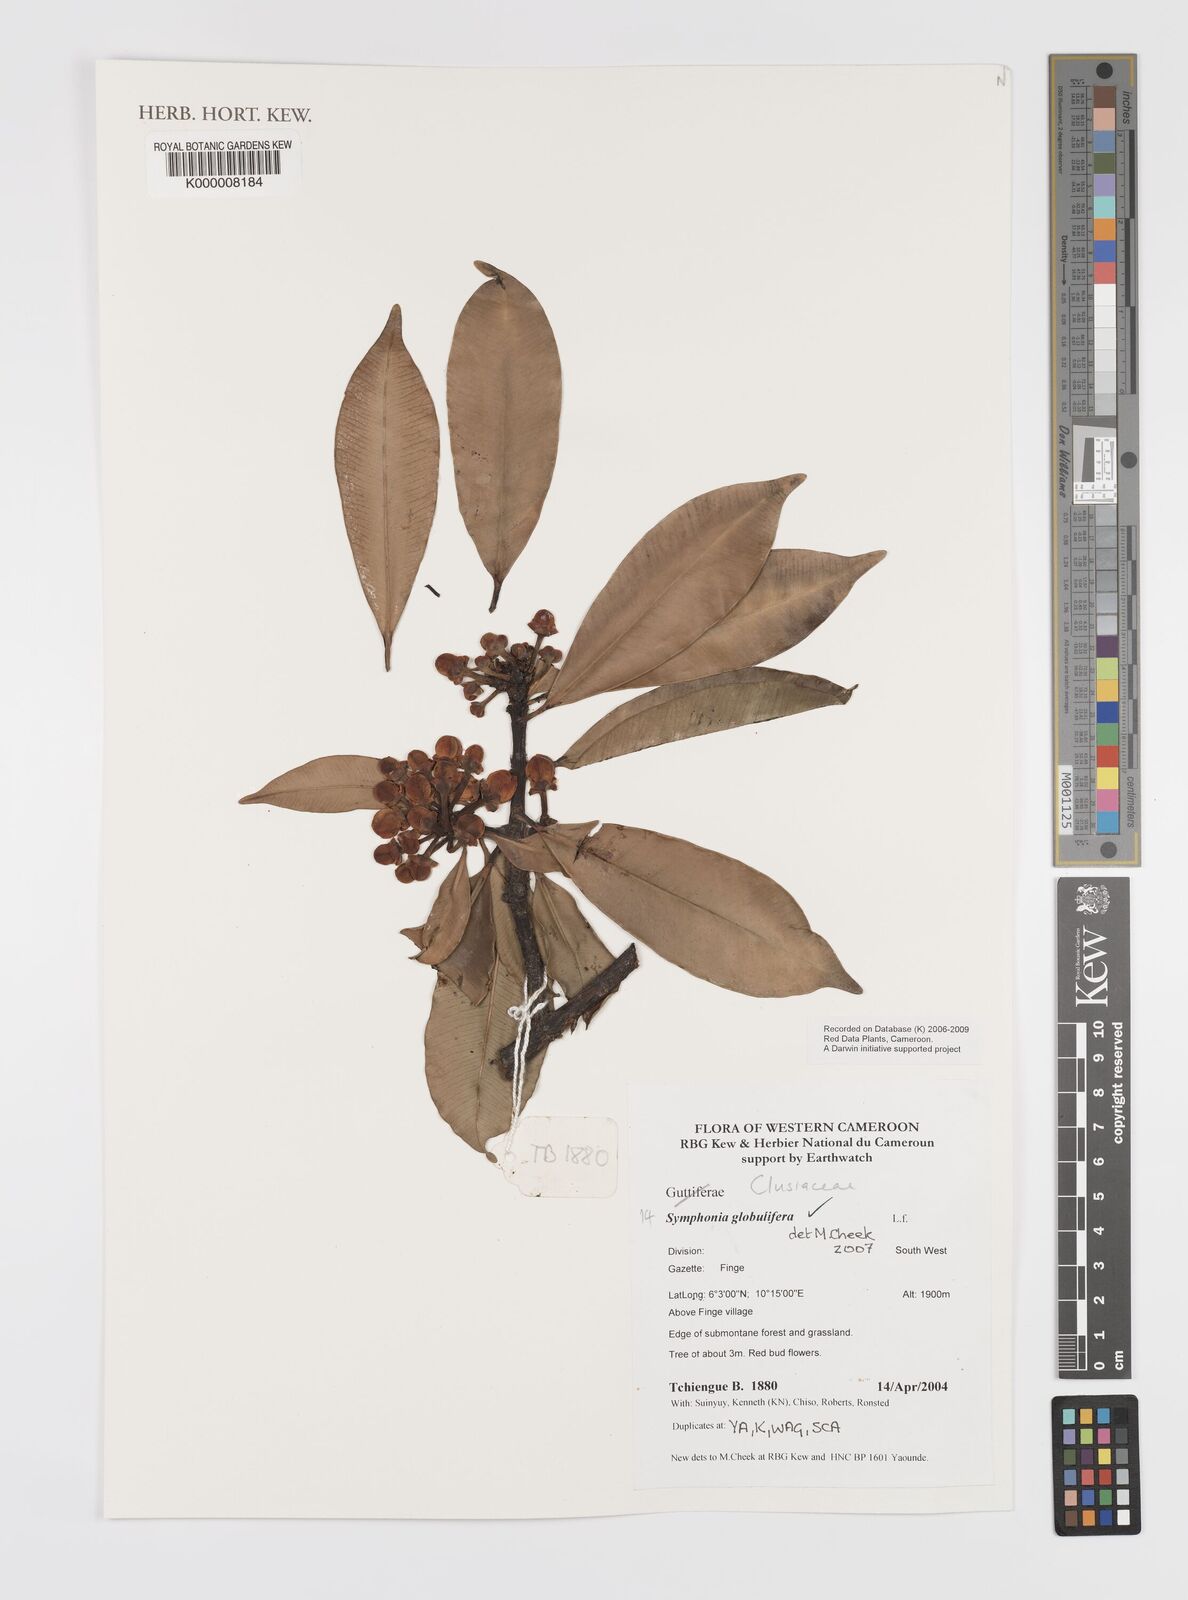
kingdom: Plantae
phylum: Tracheophyta
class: Magnoliopsida
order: Malpighiales
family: Clusiaceae
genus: Symphonia
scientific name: Symphonia globulifera
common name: Boarwood
